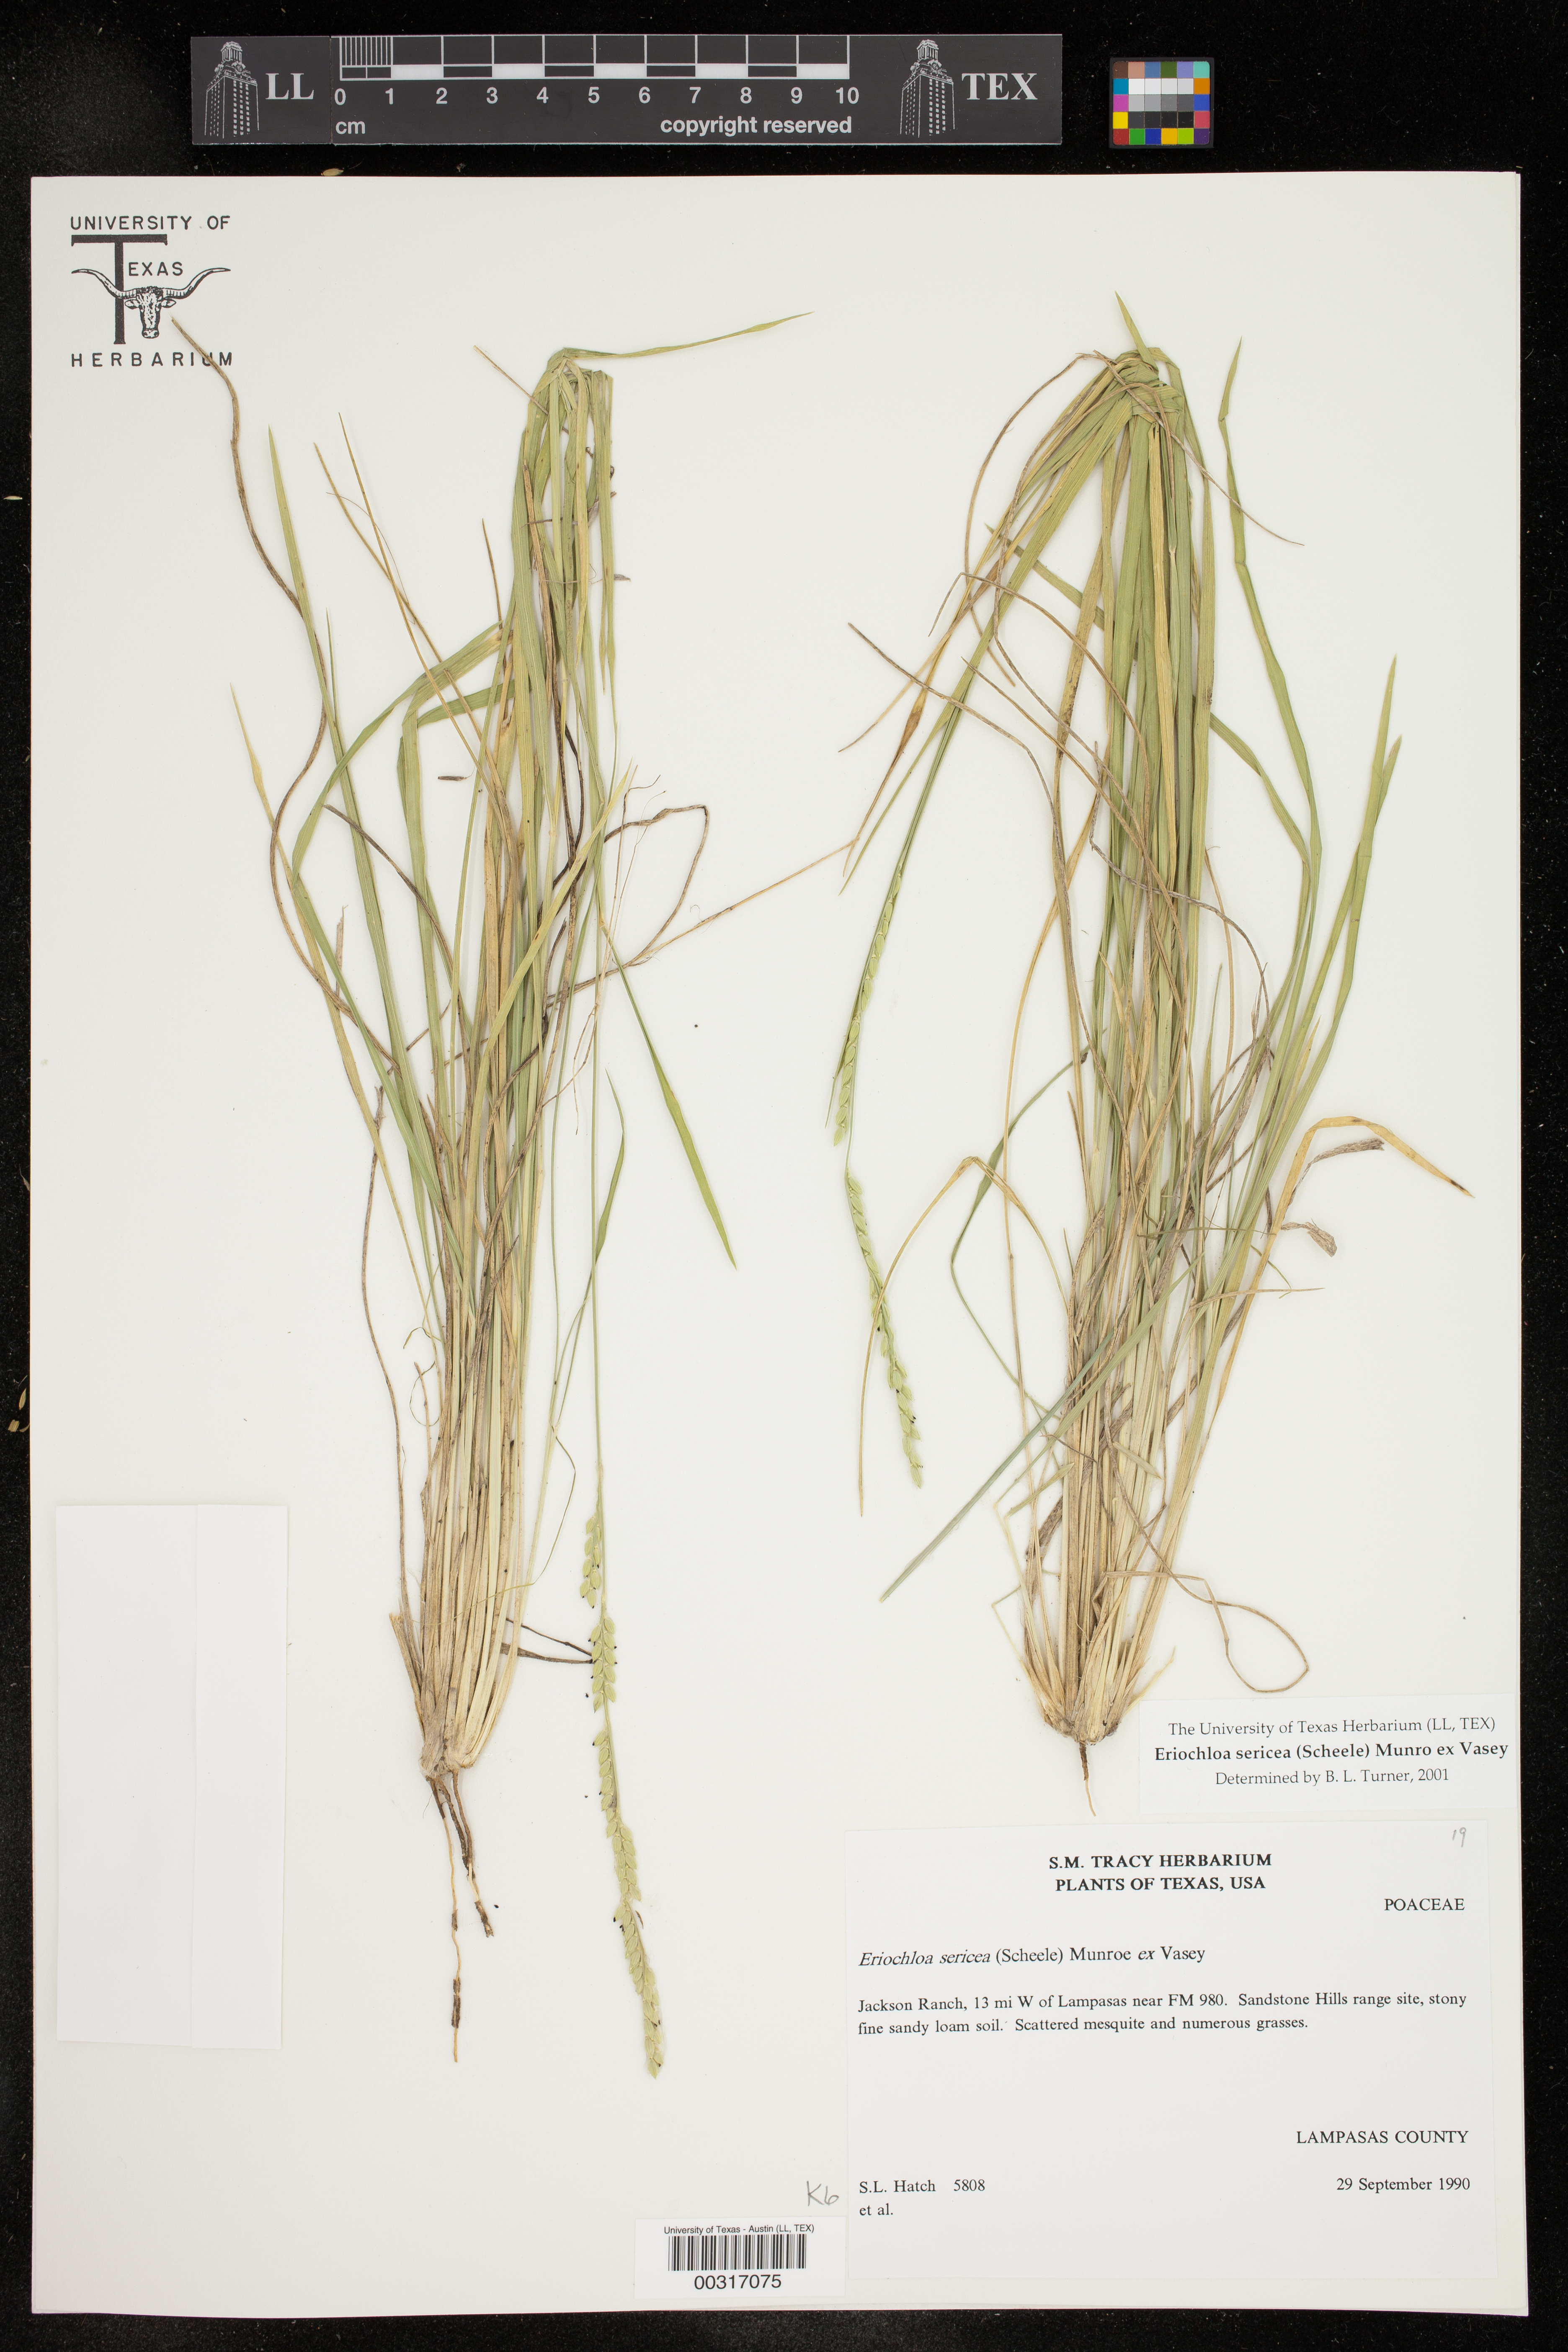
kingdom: Plantae
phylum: Tracheophyta
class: Liliopsida
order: Poales
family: Poaceae
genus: Eriochloa
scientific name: Eriochloa sericea
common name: Texas cup grass
